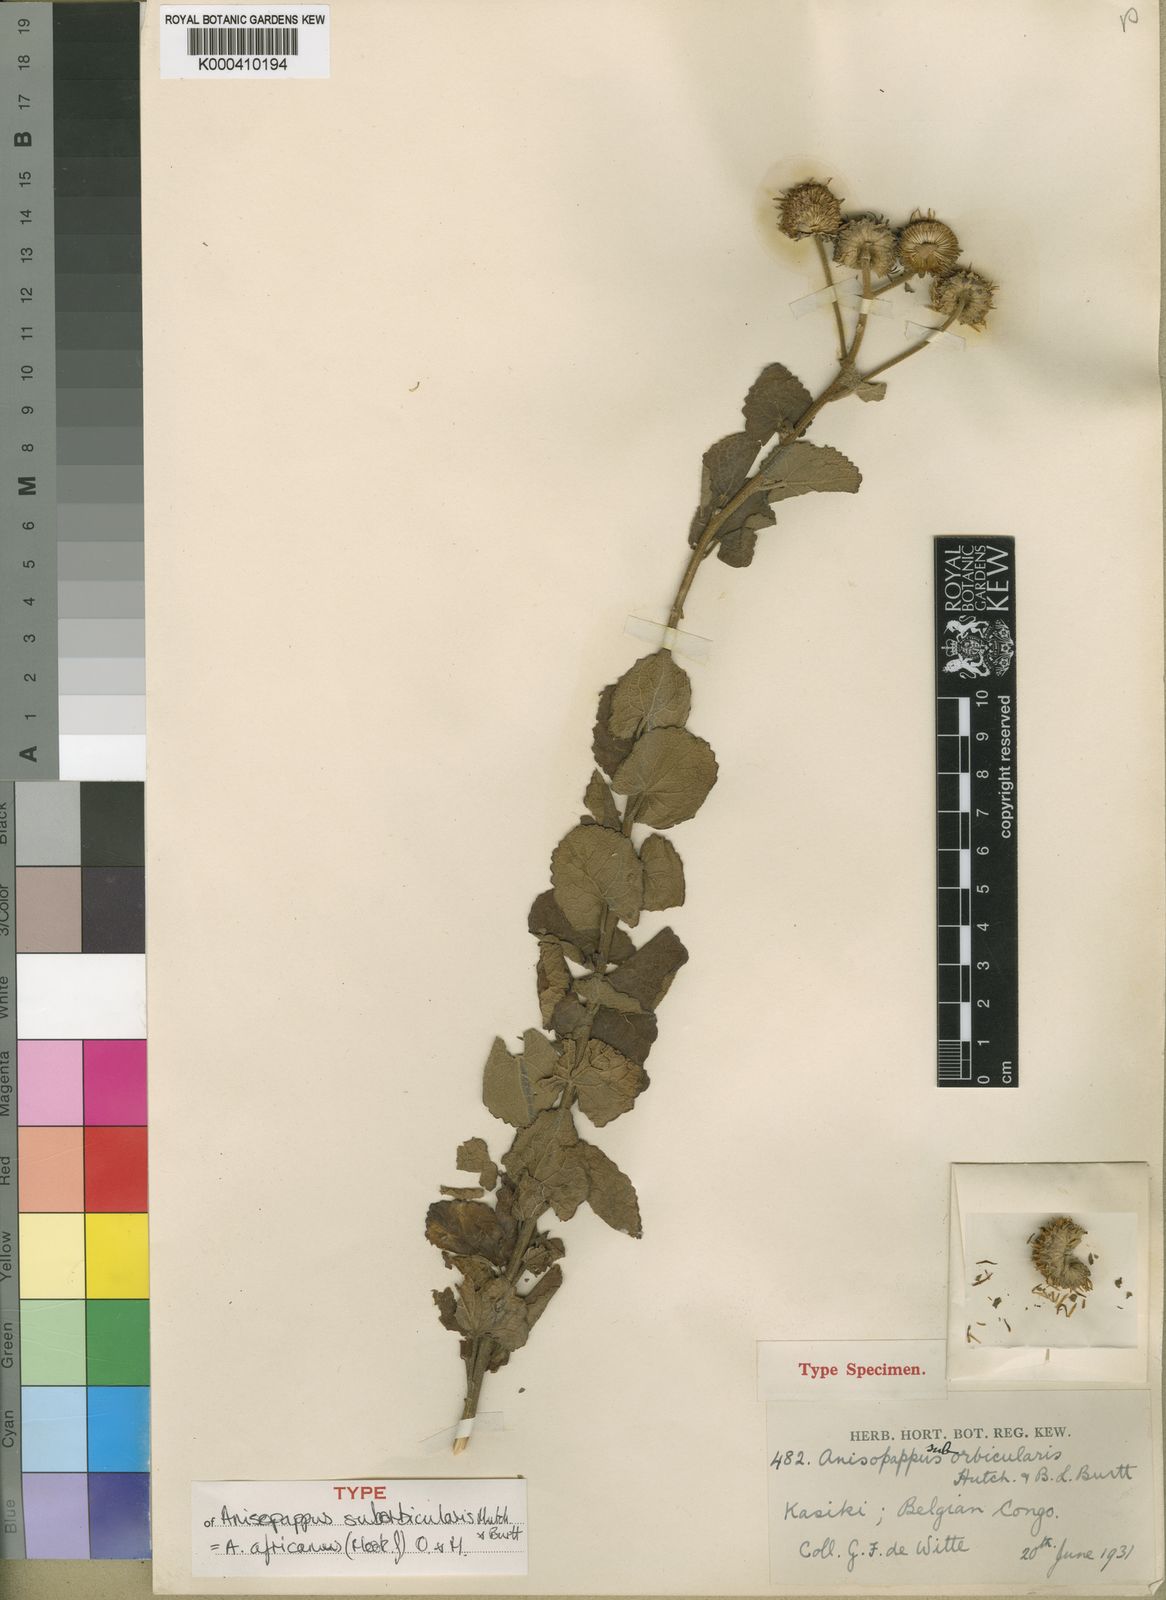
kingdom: Plantae
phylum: Tracheophyta
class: Magnoliopsida
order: Asterales
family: Asteraceae
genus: Anisopappus
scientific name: Anisopappus chinensis
